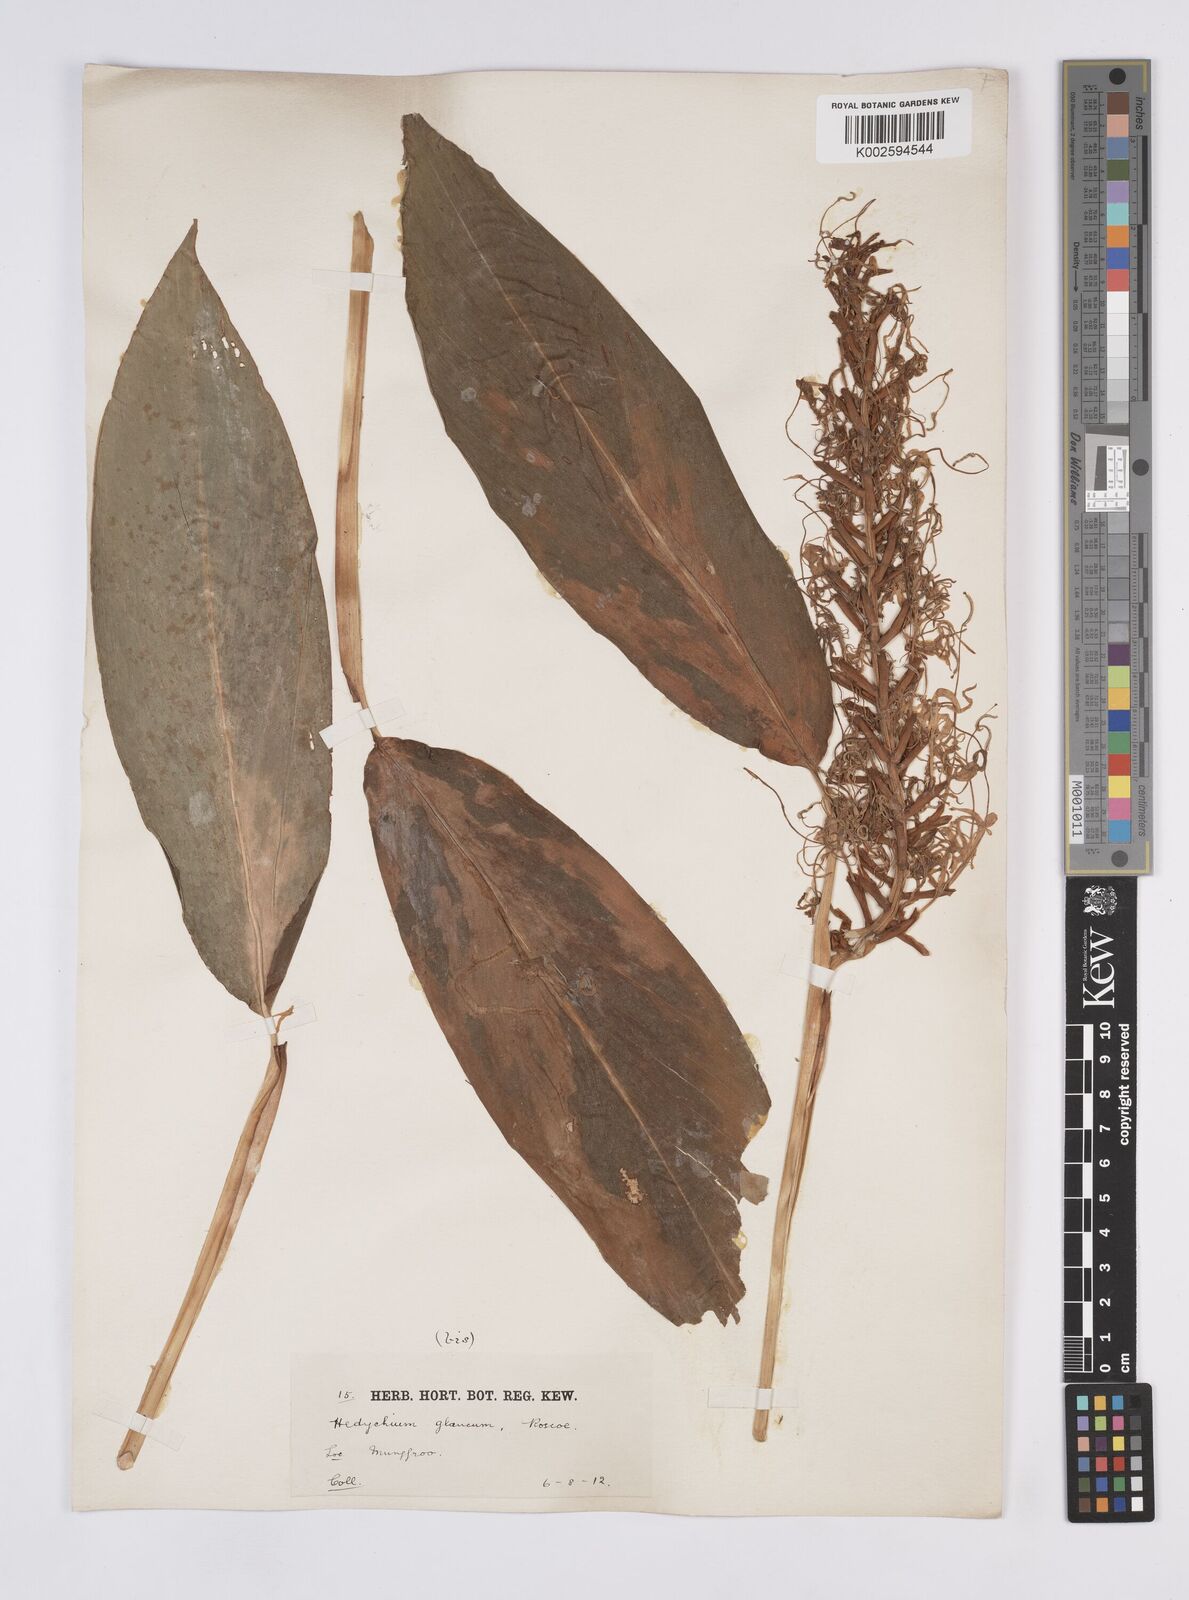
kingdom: Plantae
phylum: Tracheophyta
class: Liliopsida
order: Zingiberales
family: Zingiberaceae
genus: Hedychium
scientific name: Hedychium glaucum
